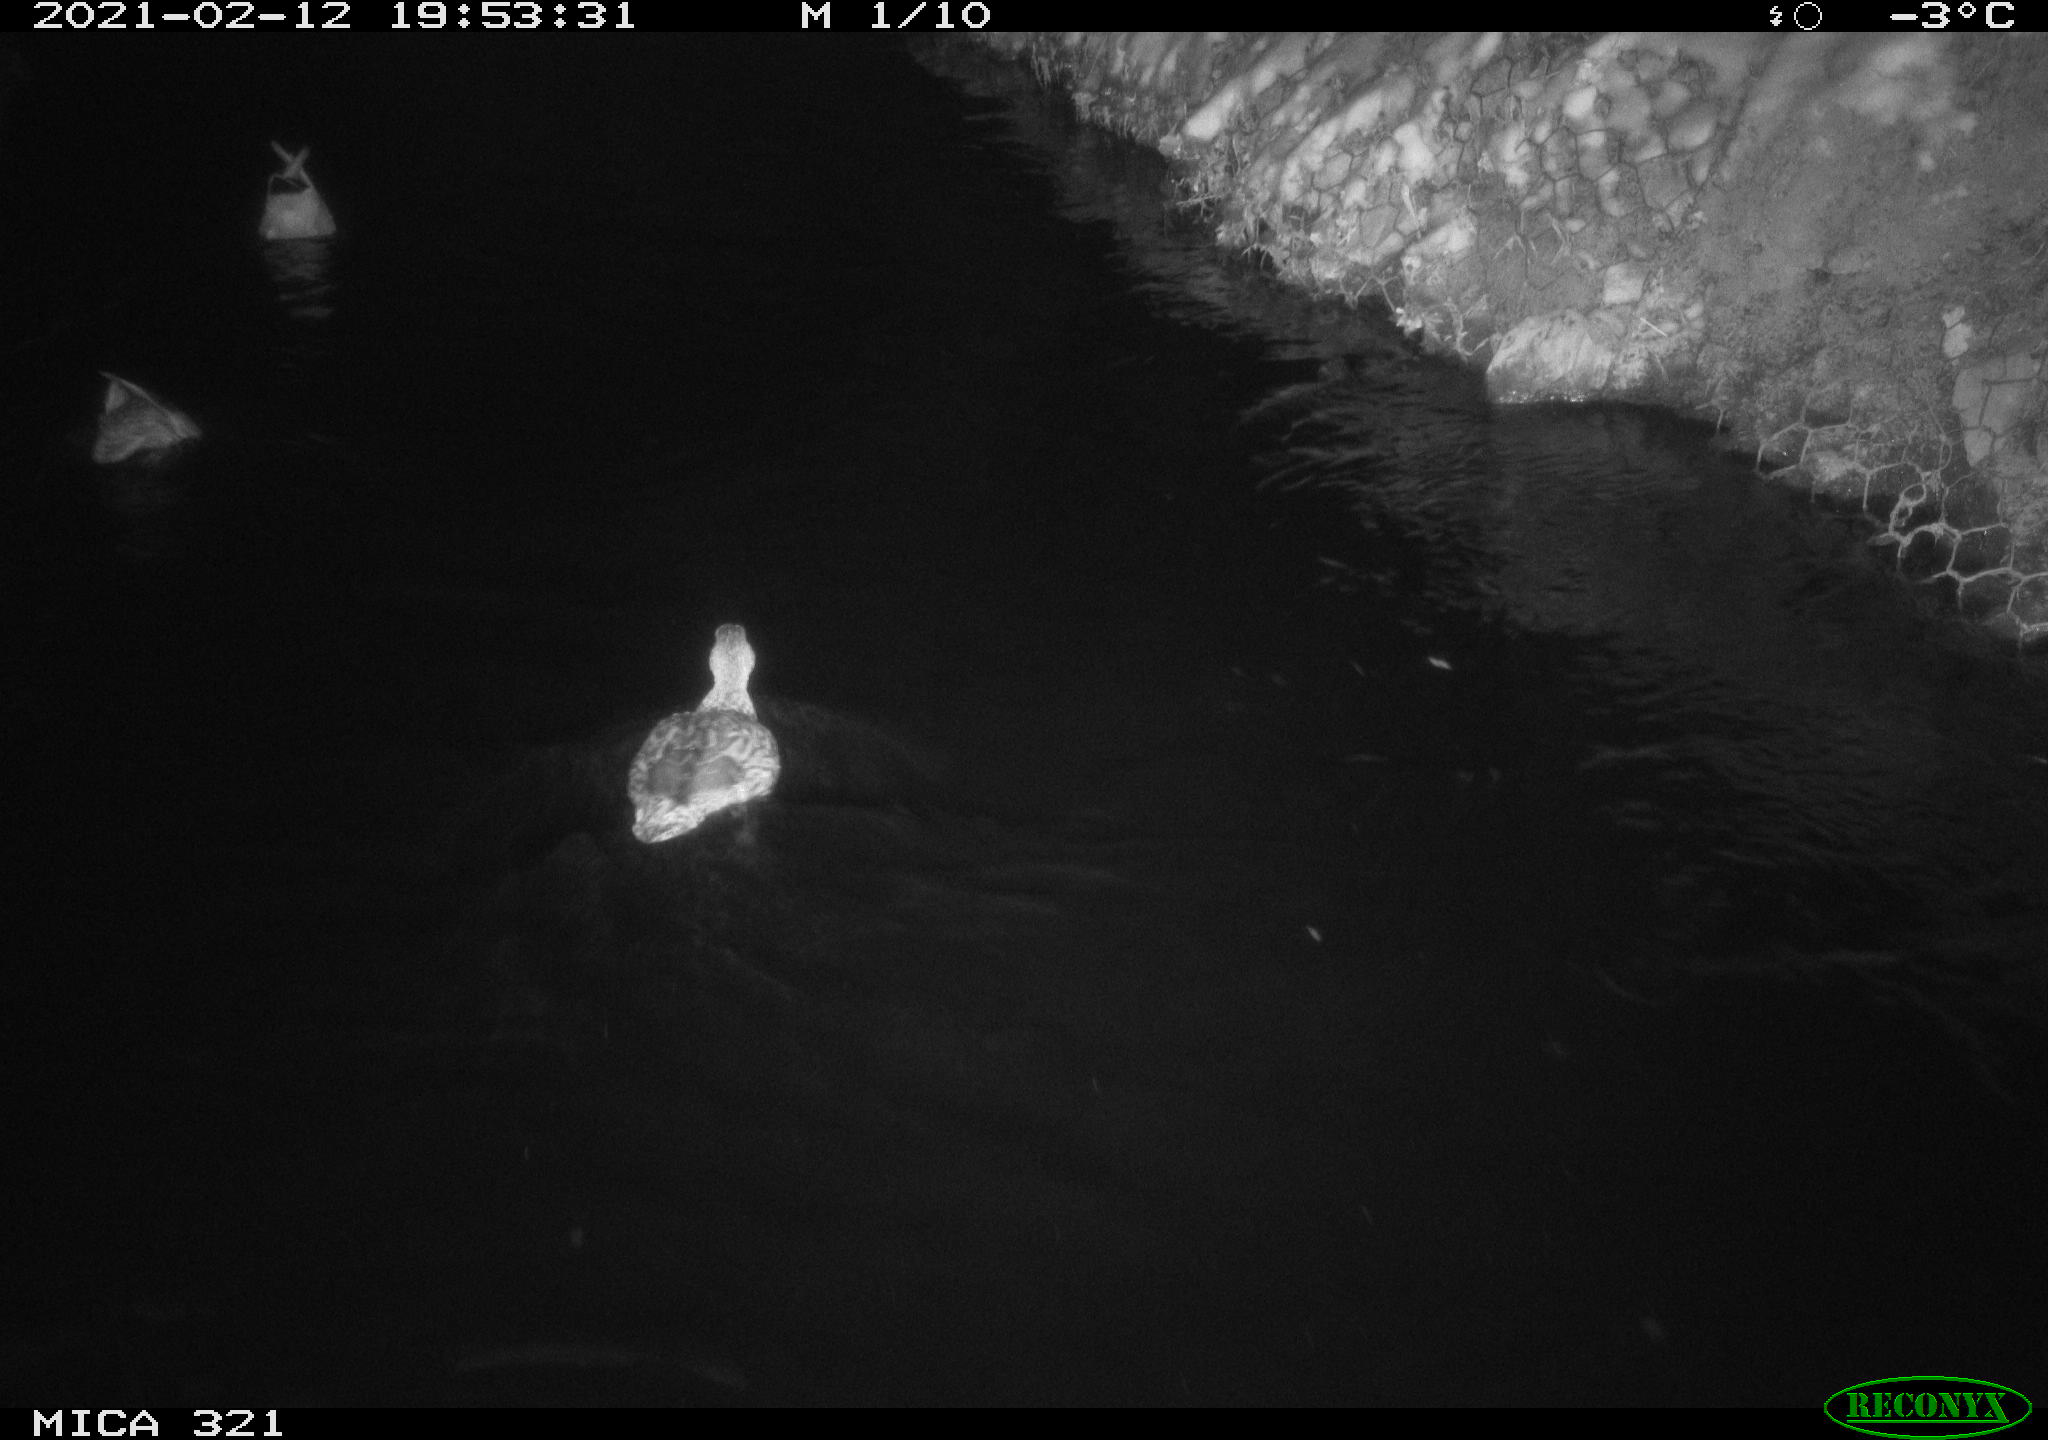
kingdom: Animalia
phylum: Chordata
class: Aves
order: Anseriformes
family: Anatidae
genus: Anas
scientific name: Anas platyrhynchos
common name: Mallard
